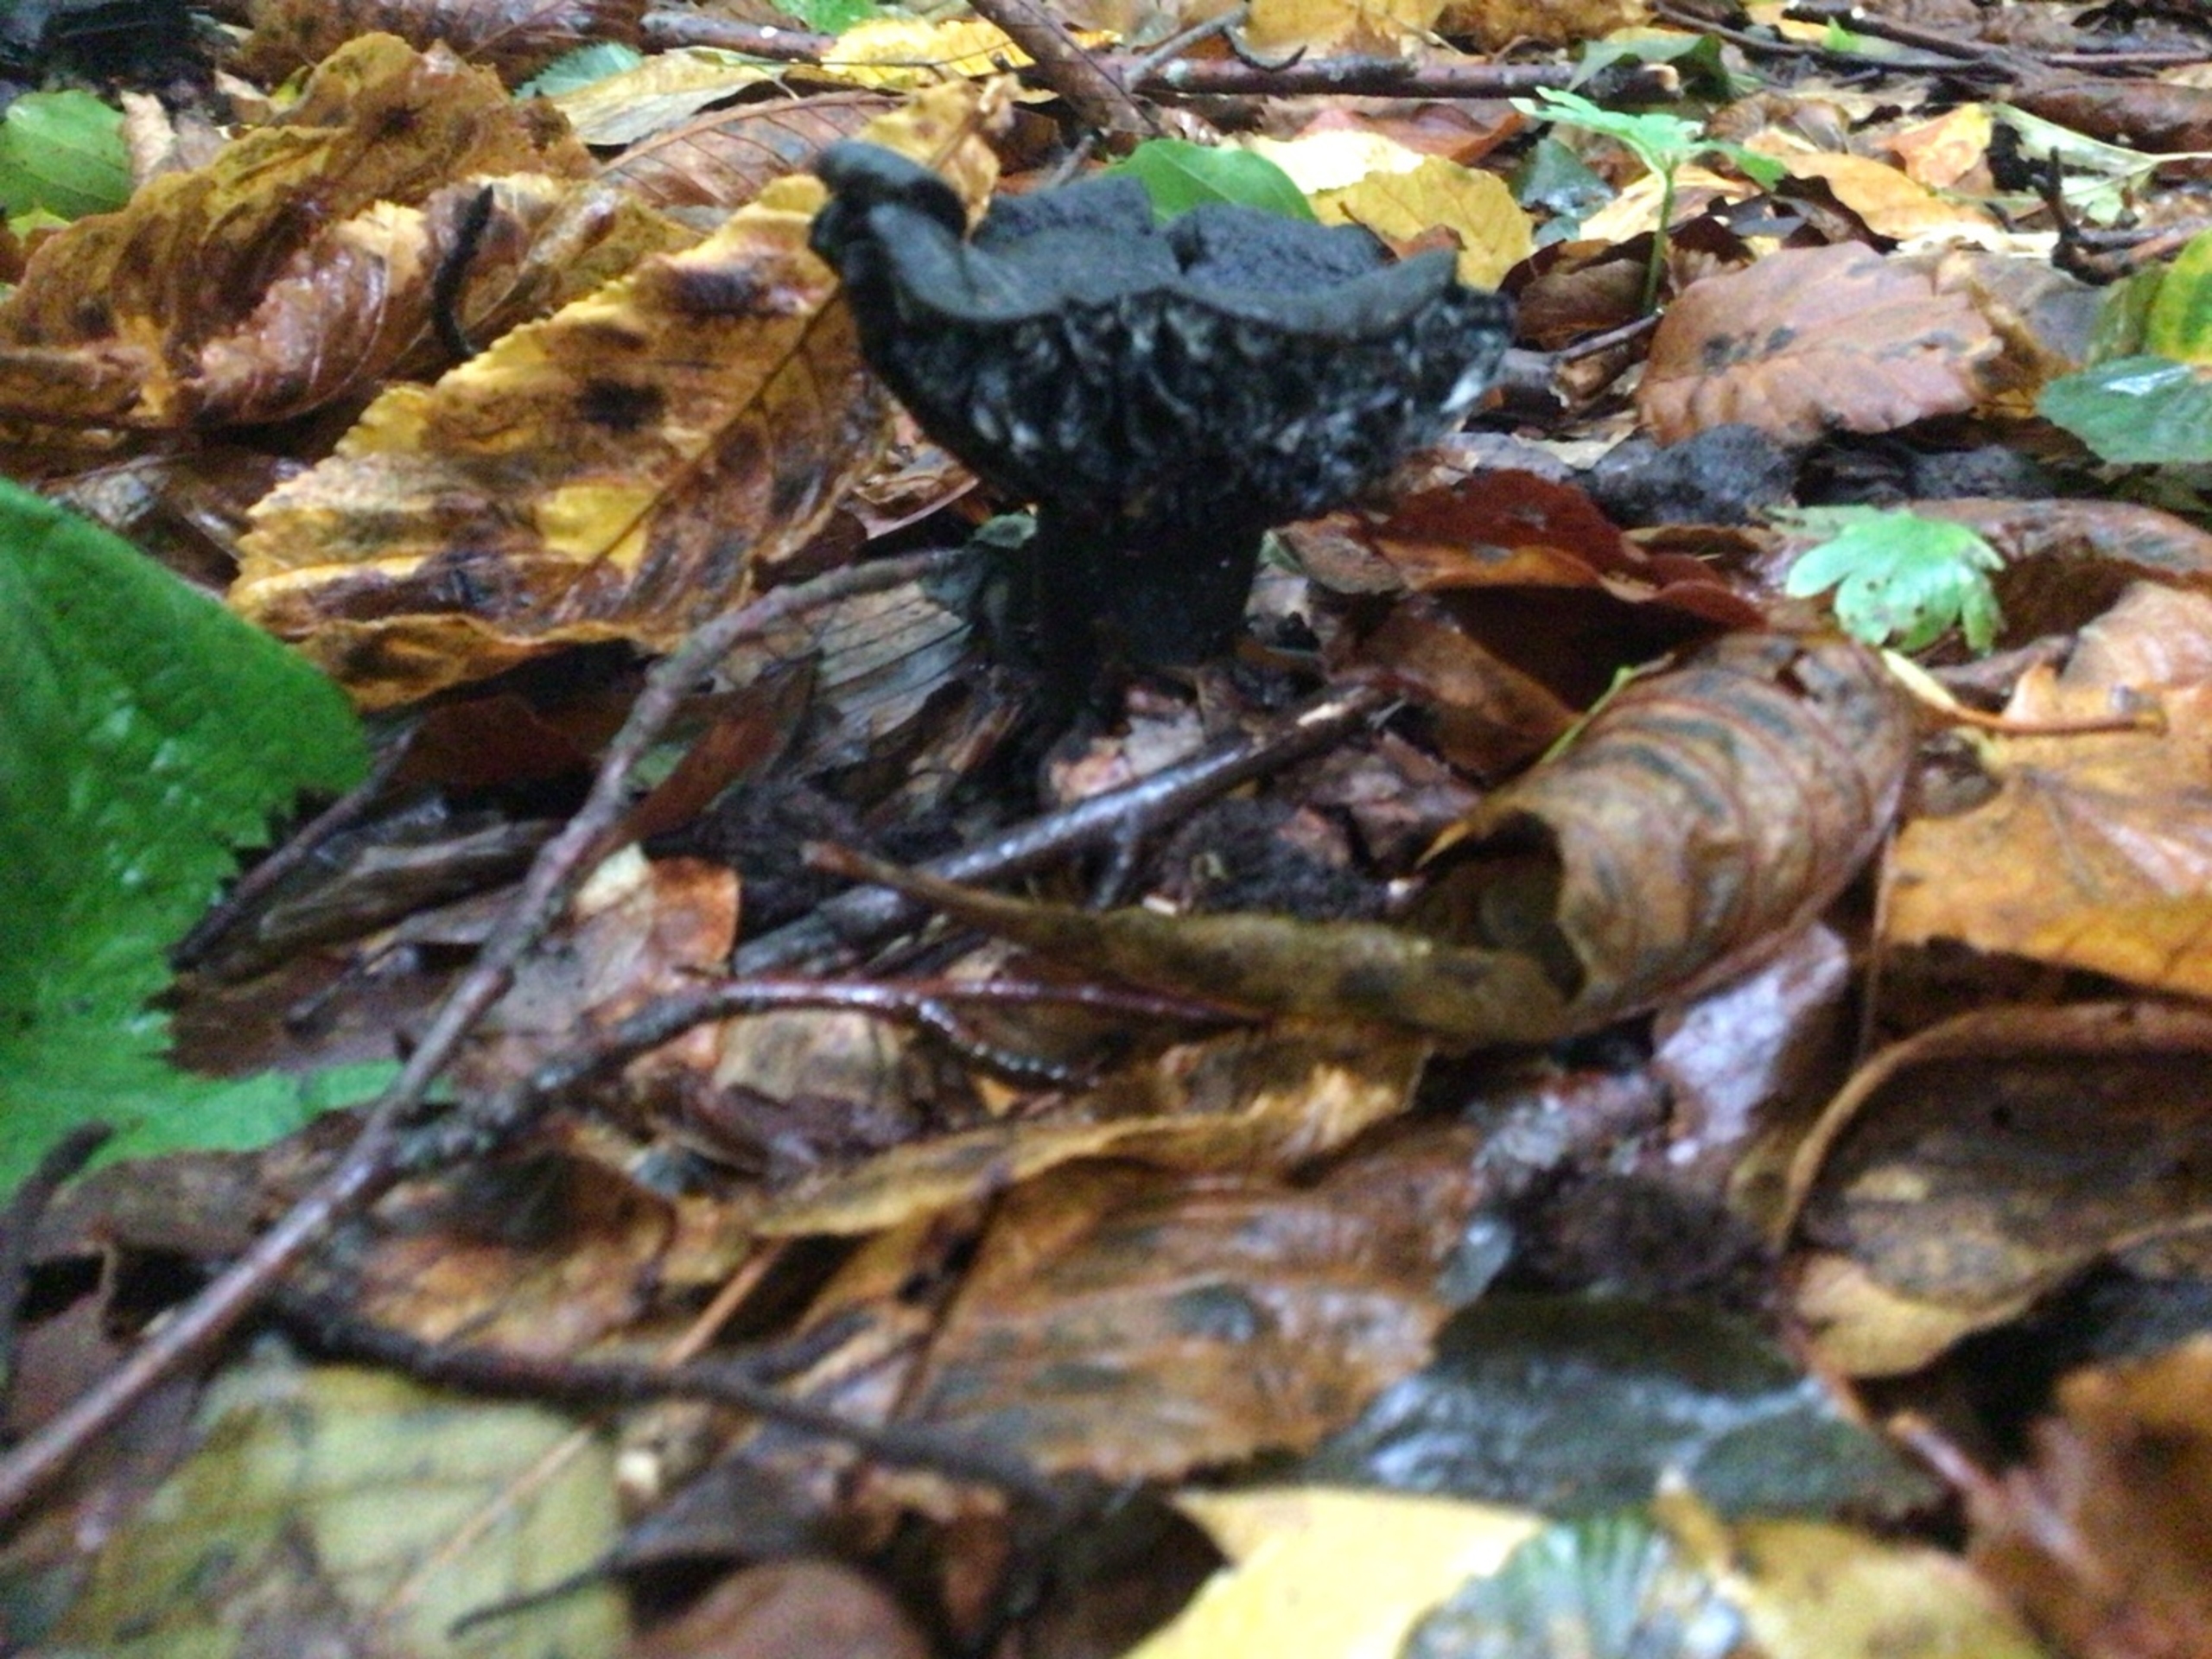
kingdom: Fungi
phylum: Basidiomycota
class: Agaricomycetes
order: Russulales
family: Russulaceae
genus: Russula
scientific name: Russula adusta
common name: Sværtende skørhat
